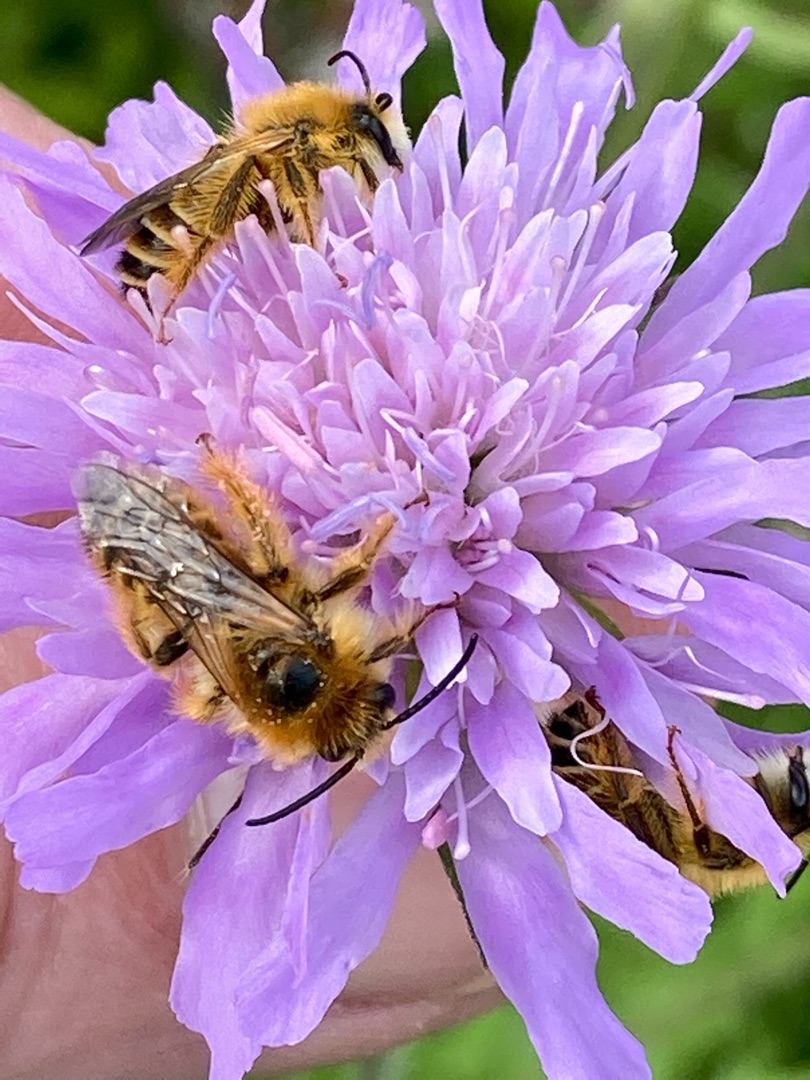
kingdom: Animalia
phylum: Arthropoda
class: Insecta
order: Hymenoptera
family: Melittidae
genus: Dasypoda
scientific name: Dasypoda hirtipes
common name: Pragtbuksebi
